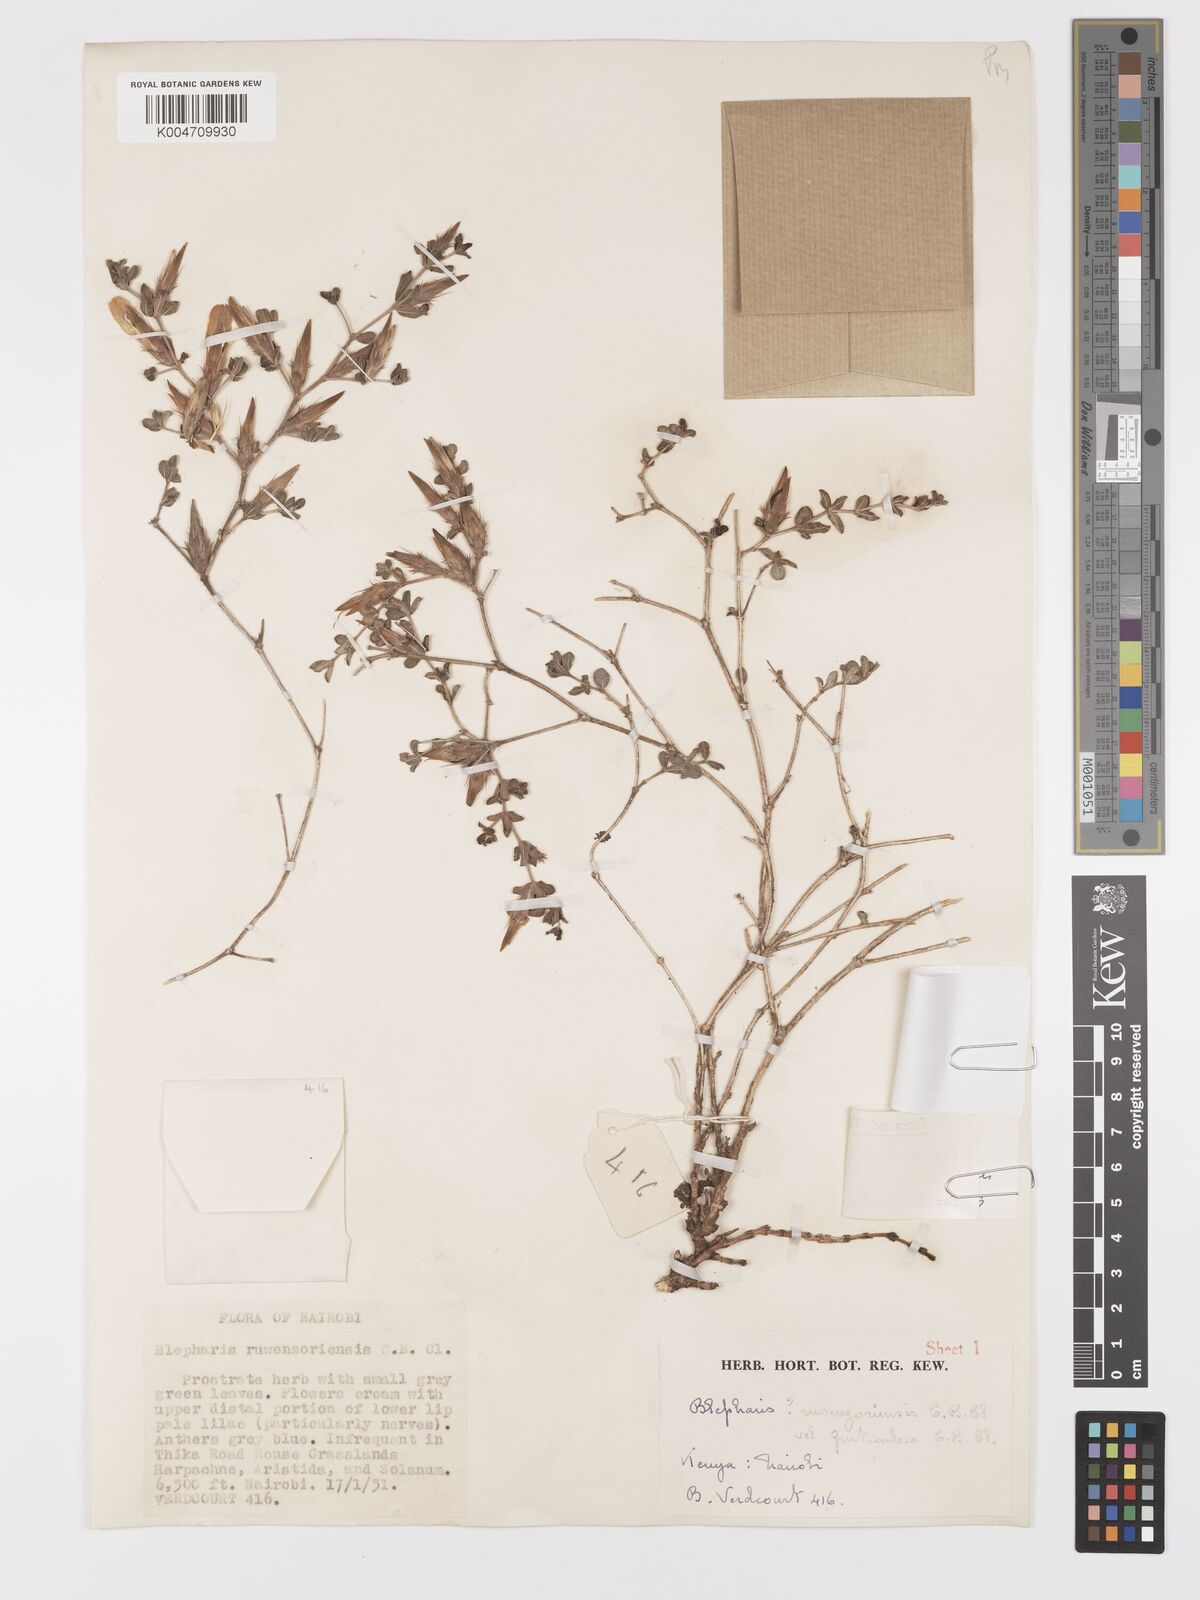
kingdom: Plantae
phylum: Tracheophyta
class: Magnoliopsida
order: Lamiales
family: Acanthaceae
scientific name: Acanthaceae
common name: Acanthaceae
